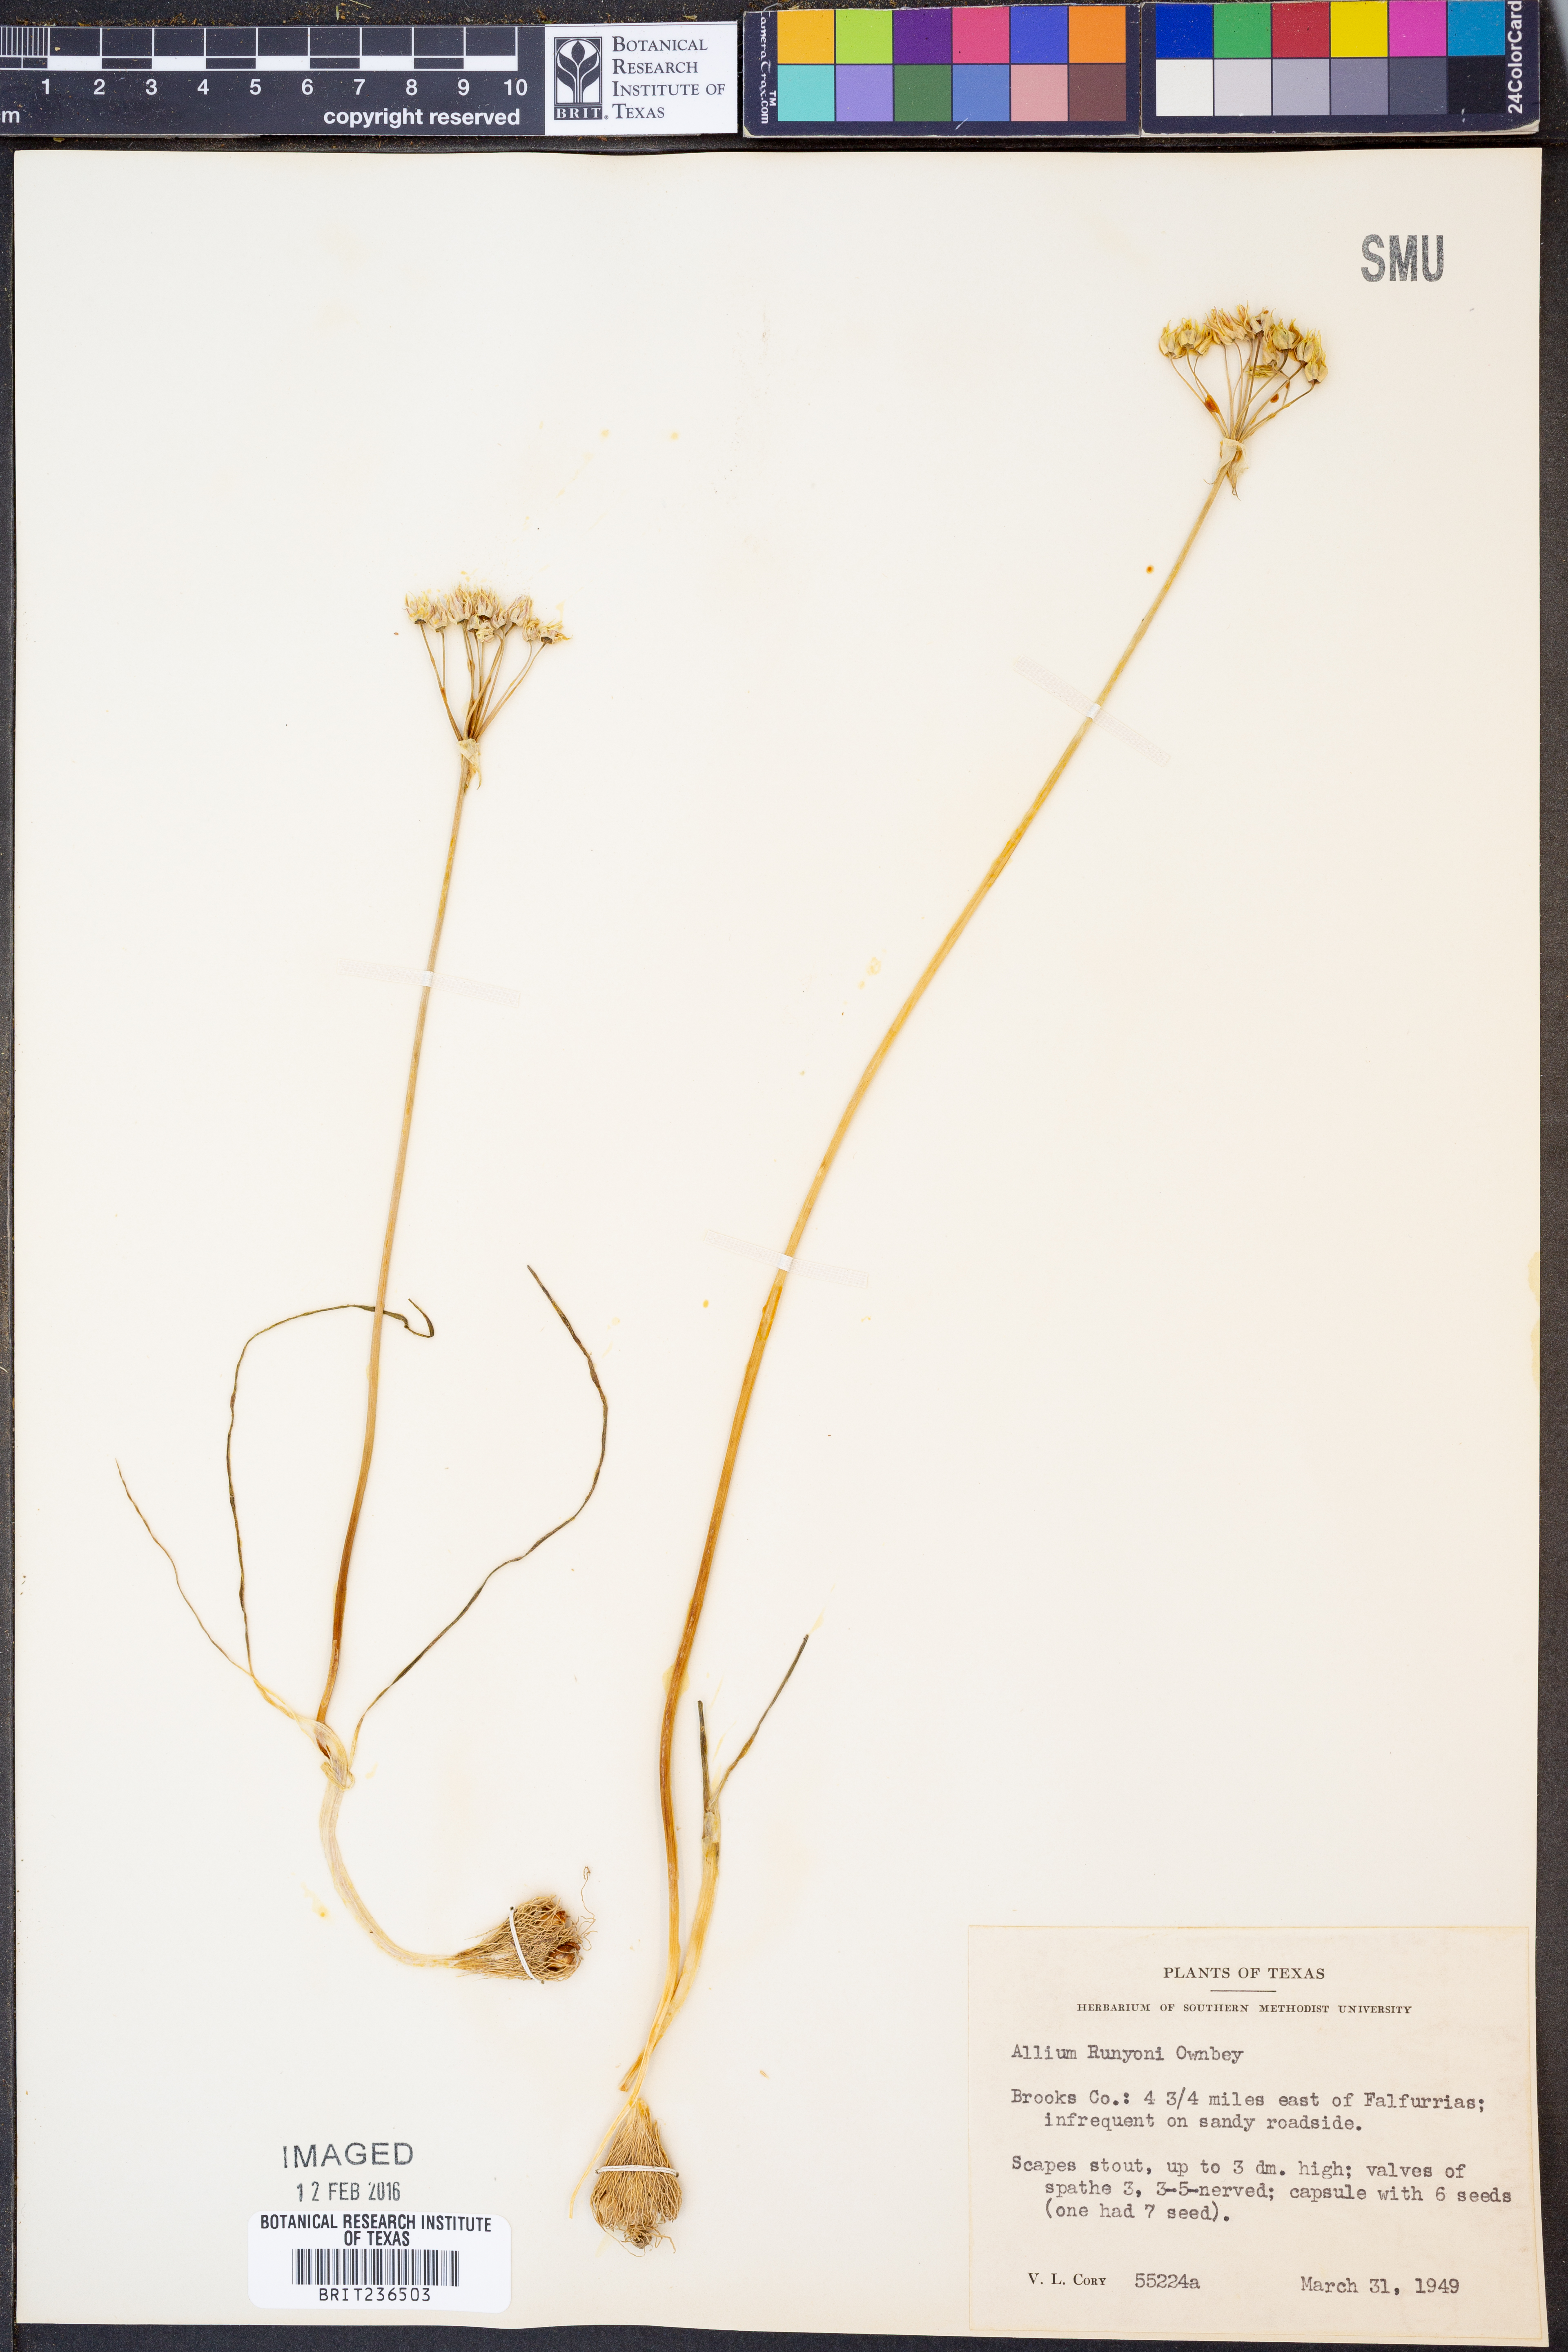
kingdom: Plantae
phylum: Tracheophyta
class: Liliopsida
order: Asparagales
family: Amaryllidaceae
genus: Allium
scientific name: Allium runyonii
